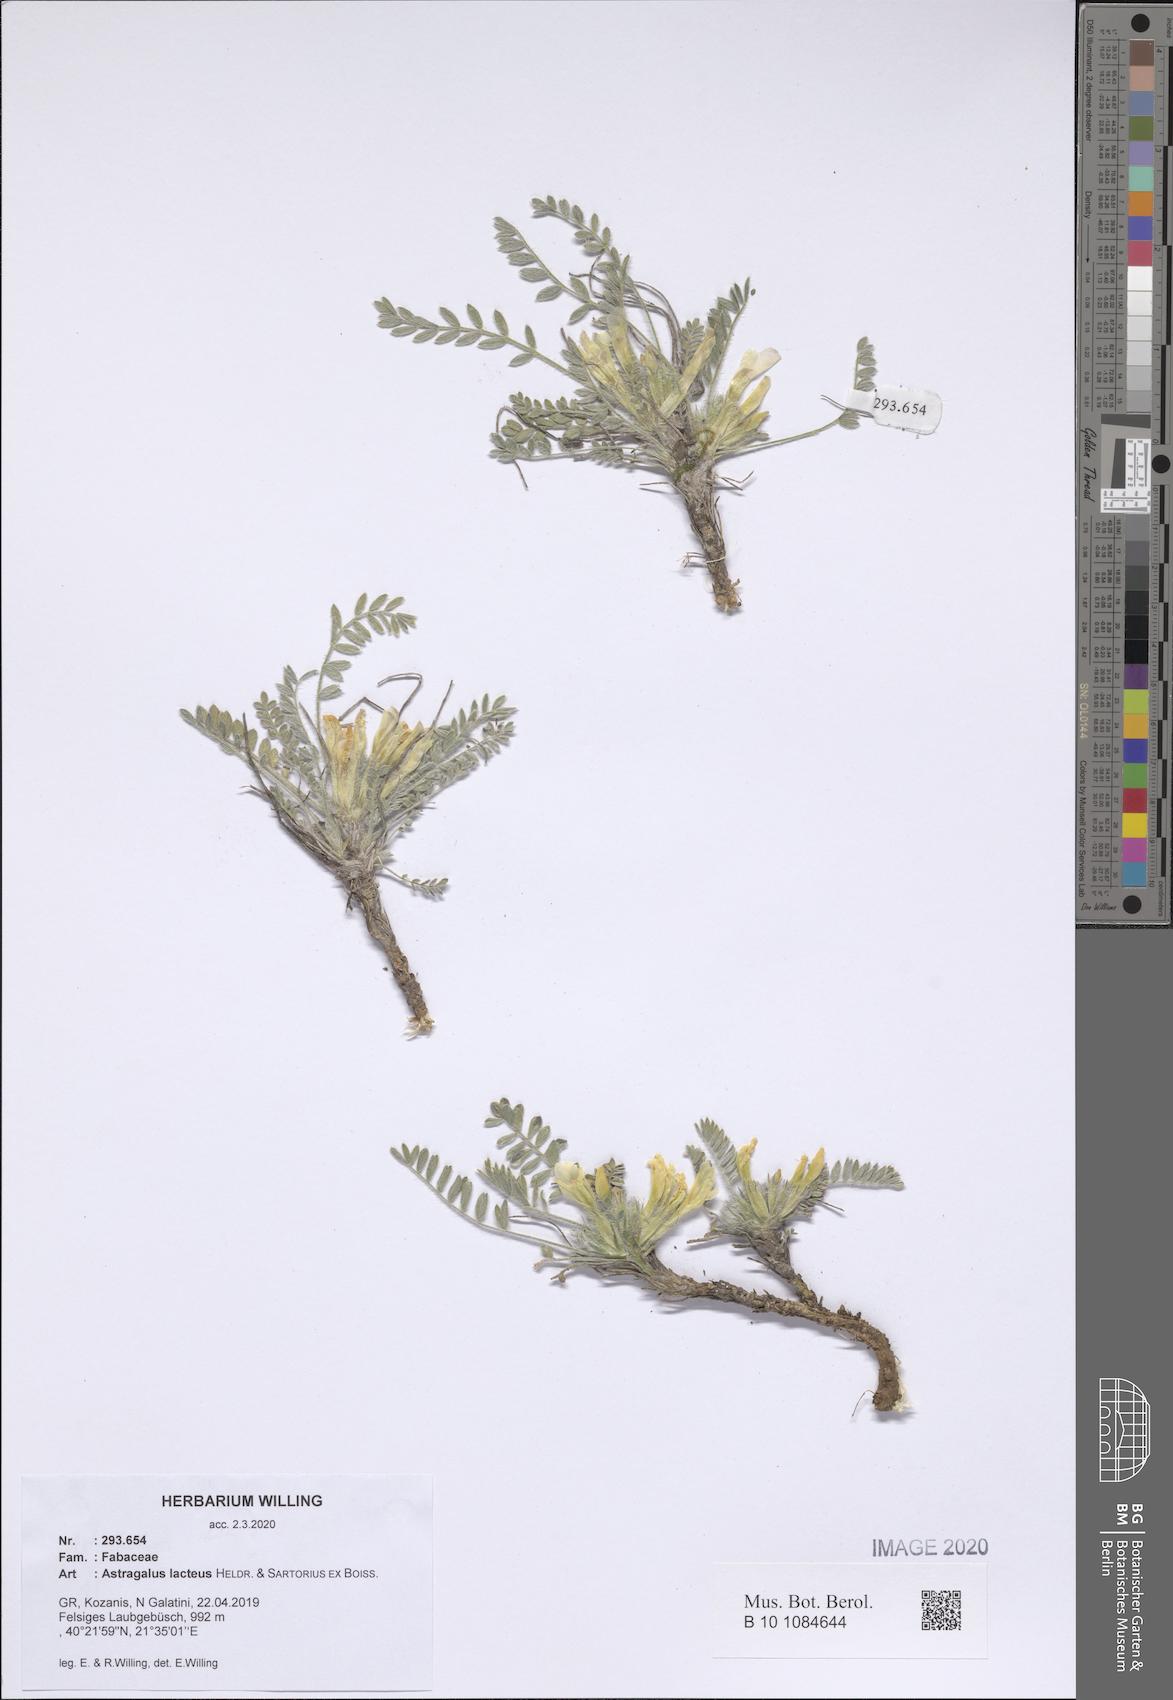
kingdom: Plantae
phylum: Tracheophyta
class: Magnoliopsida
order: Fabales
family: Fabaceae
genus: Astragalus
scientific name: Astragalus lacteus
